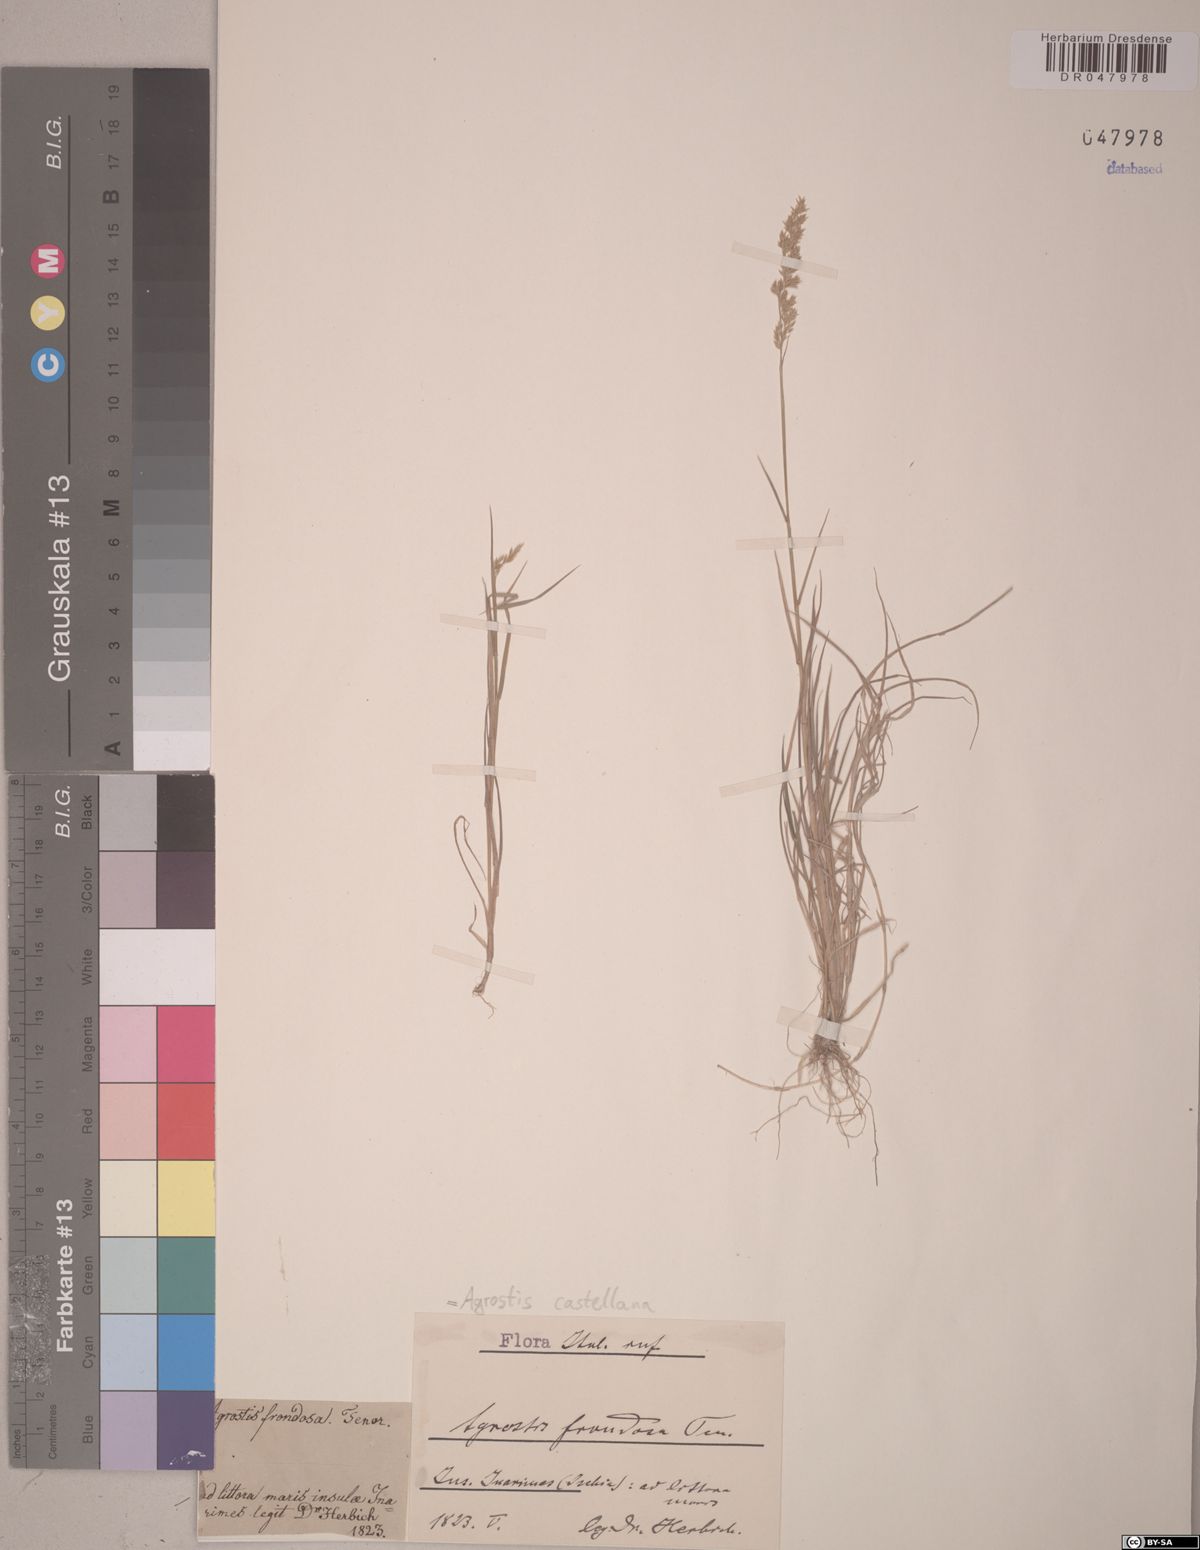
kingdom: Plantae
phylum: Tracheophyta
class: Liliopsida
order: Poales
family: Poaceae
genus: Agrostis
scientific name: Agrostis castellana
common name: Highland bent
